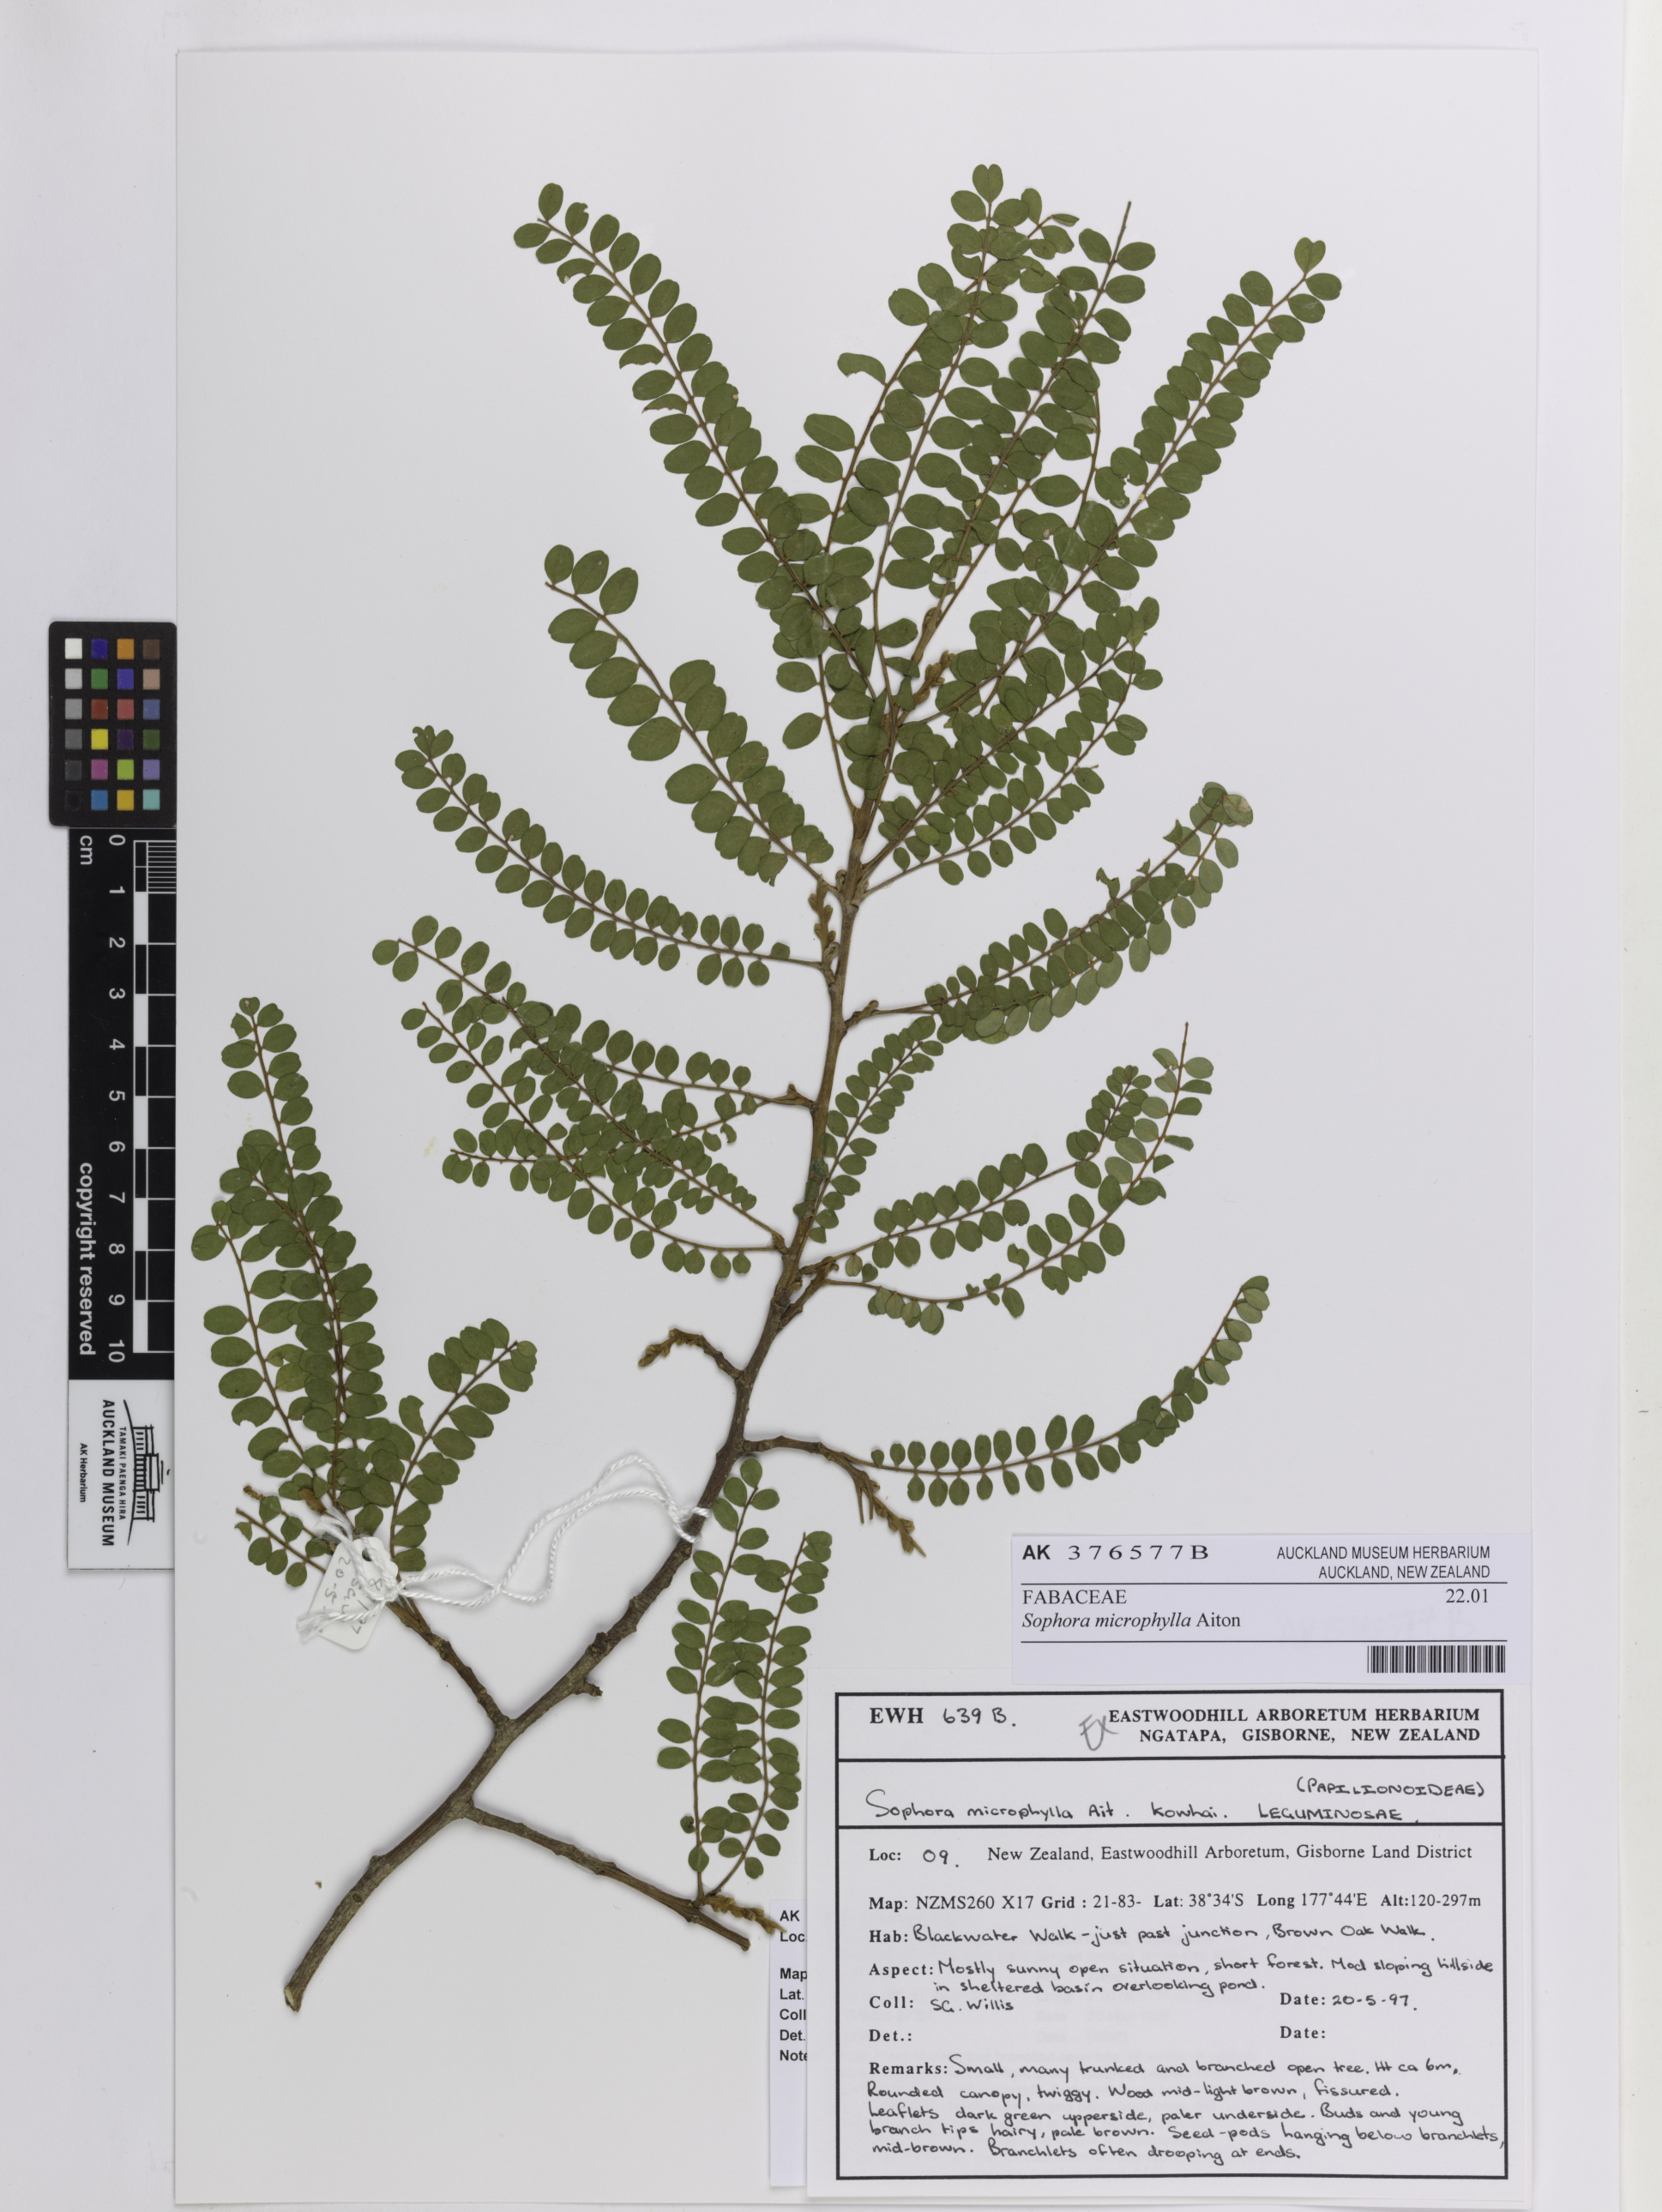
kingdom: Plantae
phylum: Tracheophyta
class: Magnoliopsida
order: Fabales
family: Fabaceae
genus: Sophora
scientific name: Sophora microphylla
